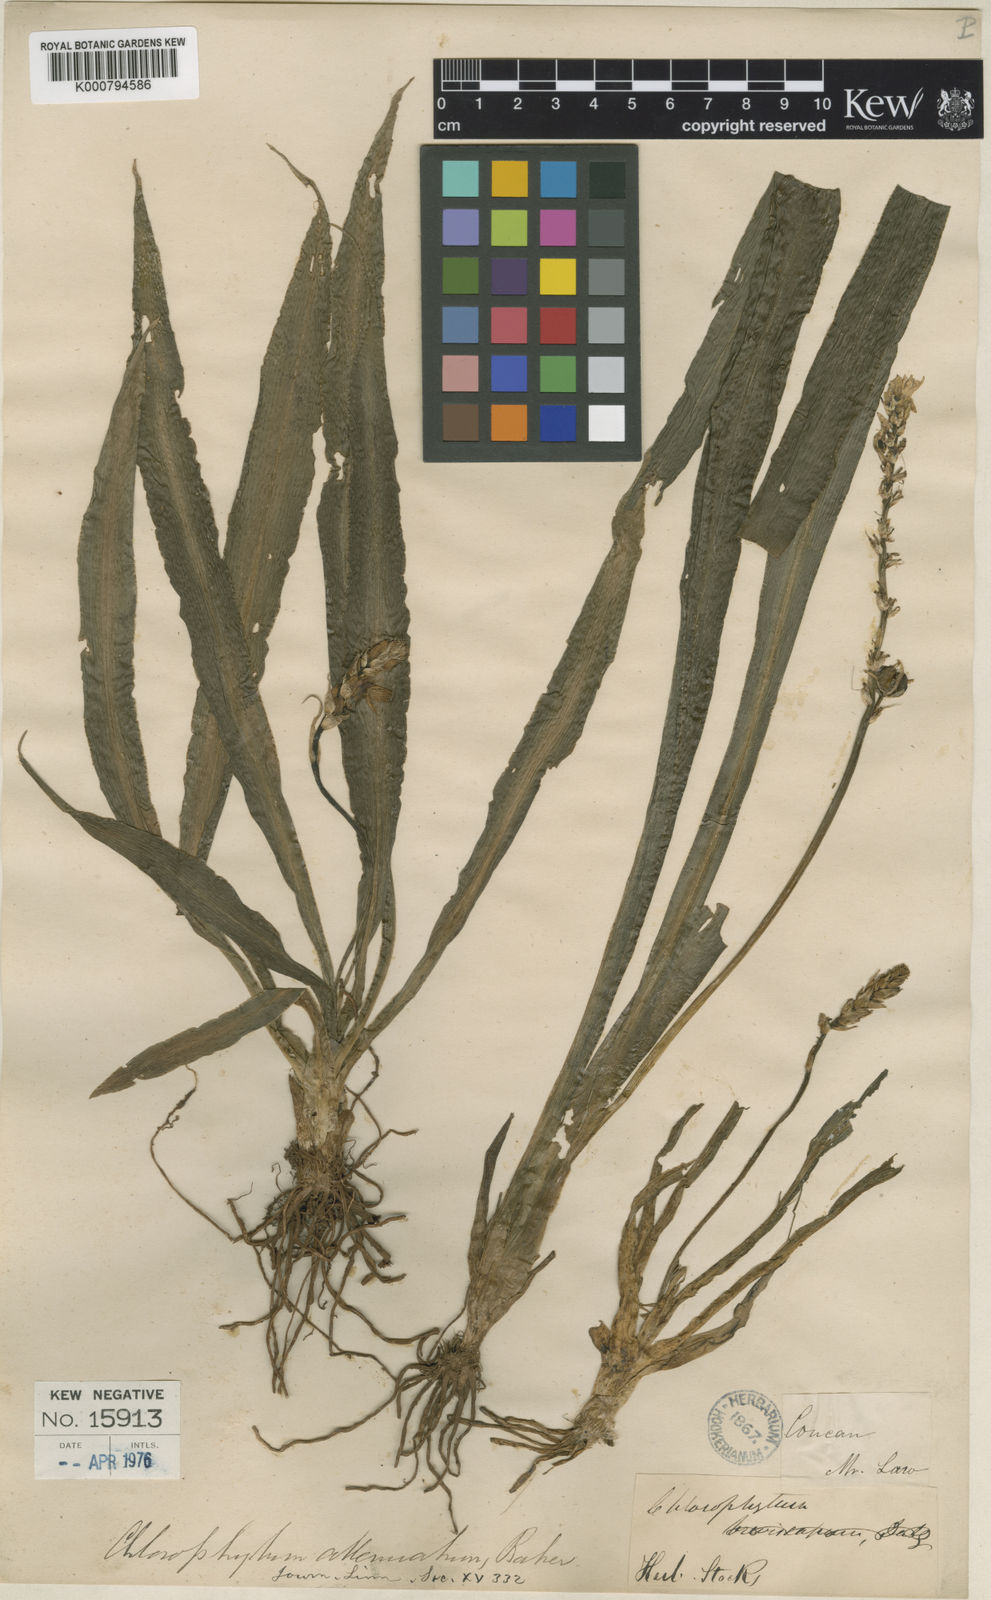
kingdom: Plantae
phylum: Tracheophyta
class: Liliopsida
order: Asparagales
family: Asparagaceae
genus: Chlorophytum
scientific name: Chlorophytum breviscapum
